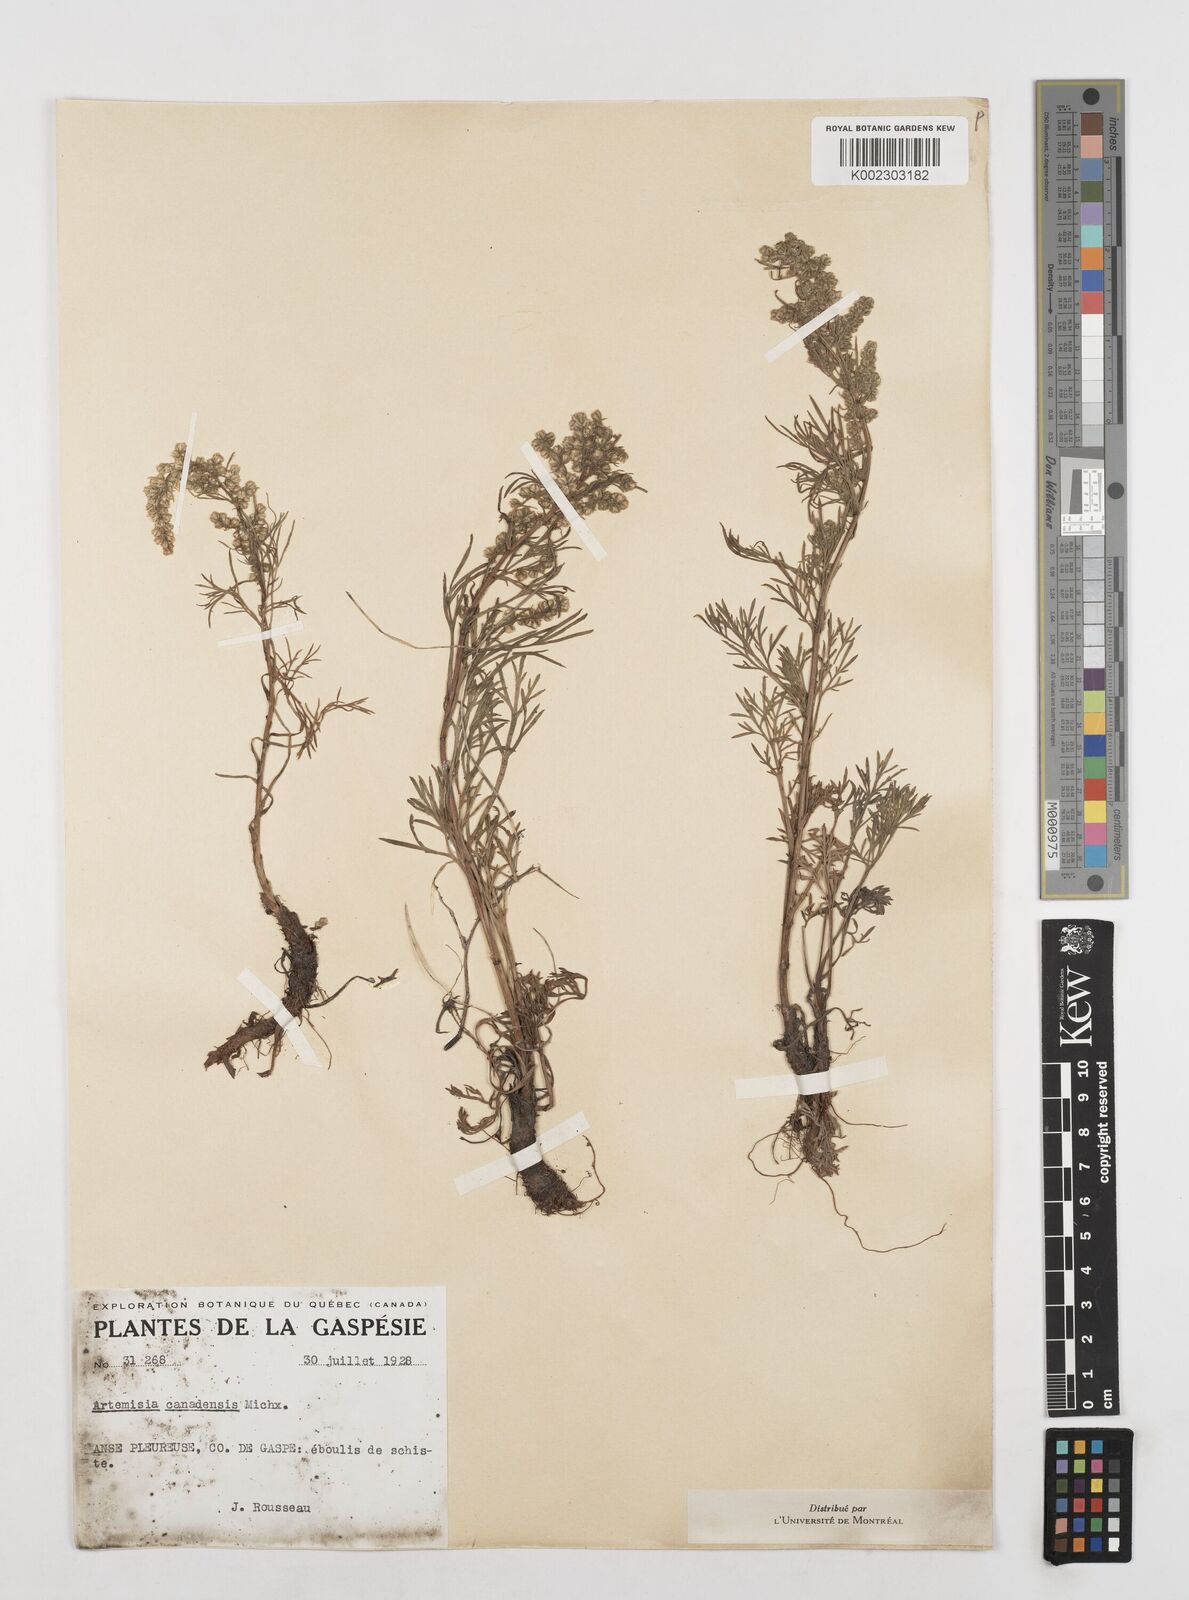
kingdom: Plantae
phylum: Tracheophyta
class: Magnoliopsida
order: Asterales
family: Asteraceae
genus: Artemisia
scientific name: Artemisia campestris
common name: Field wormwood
